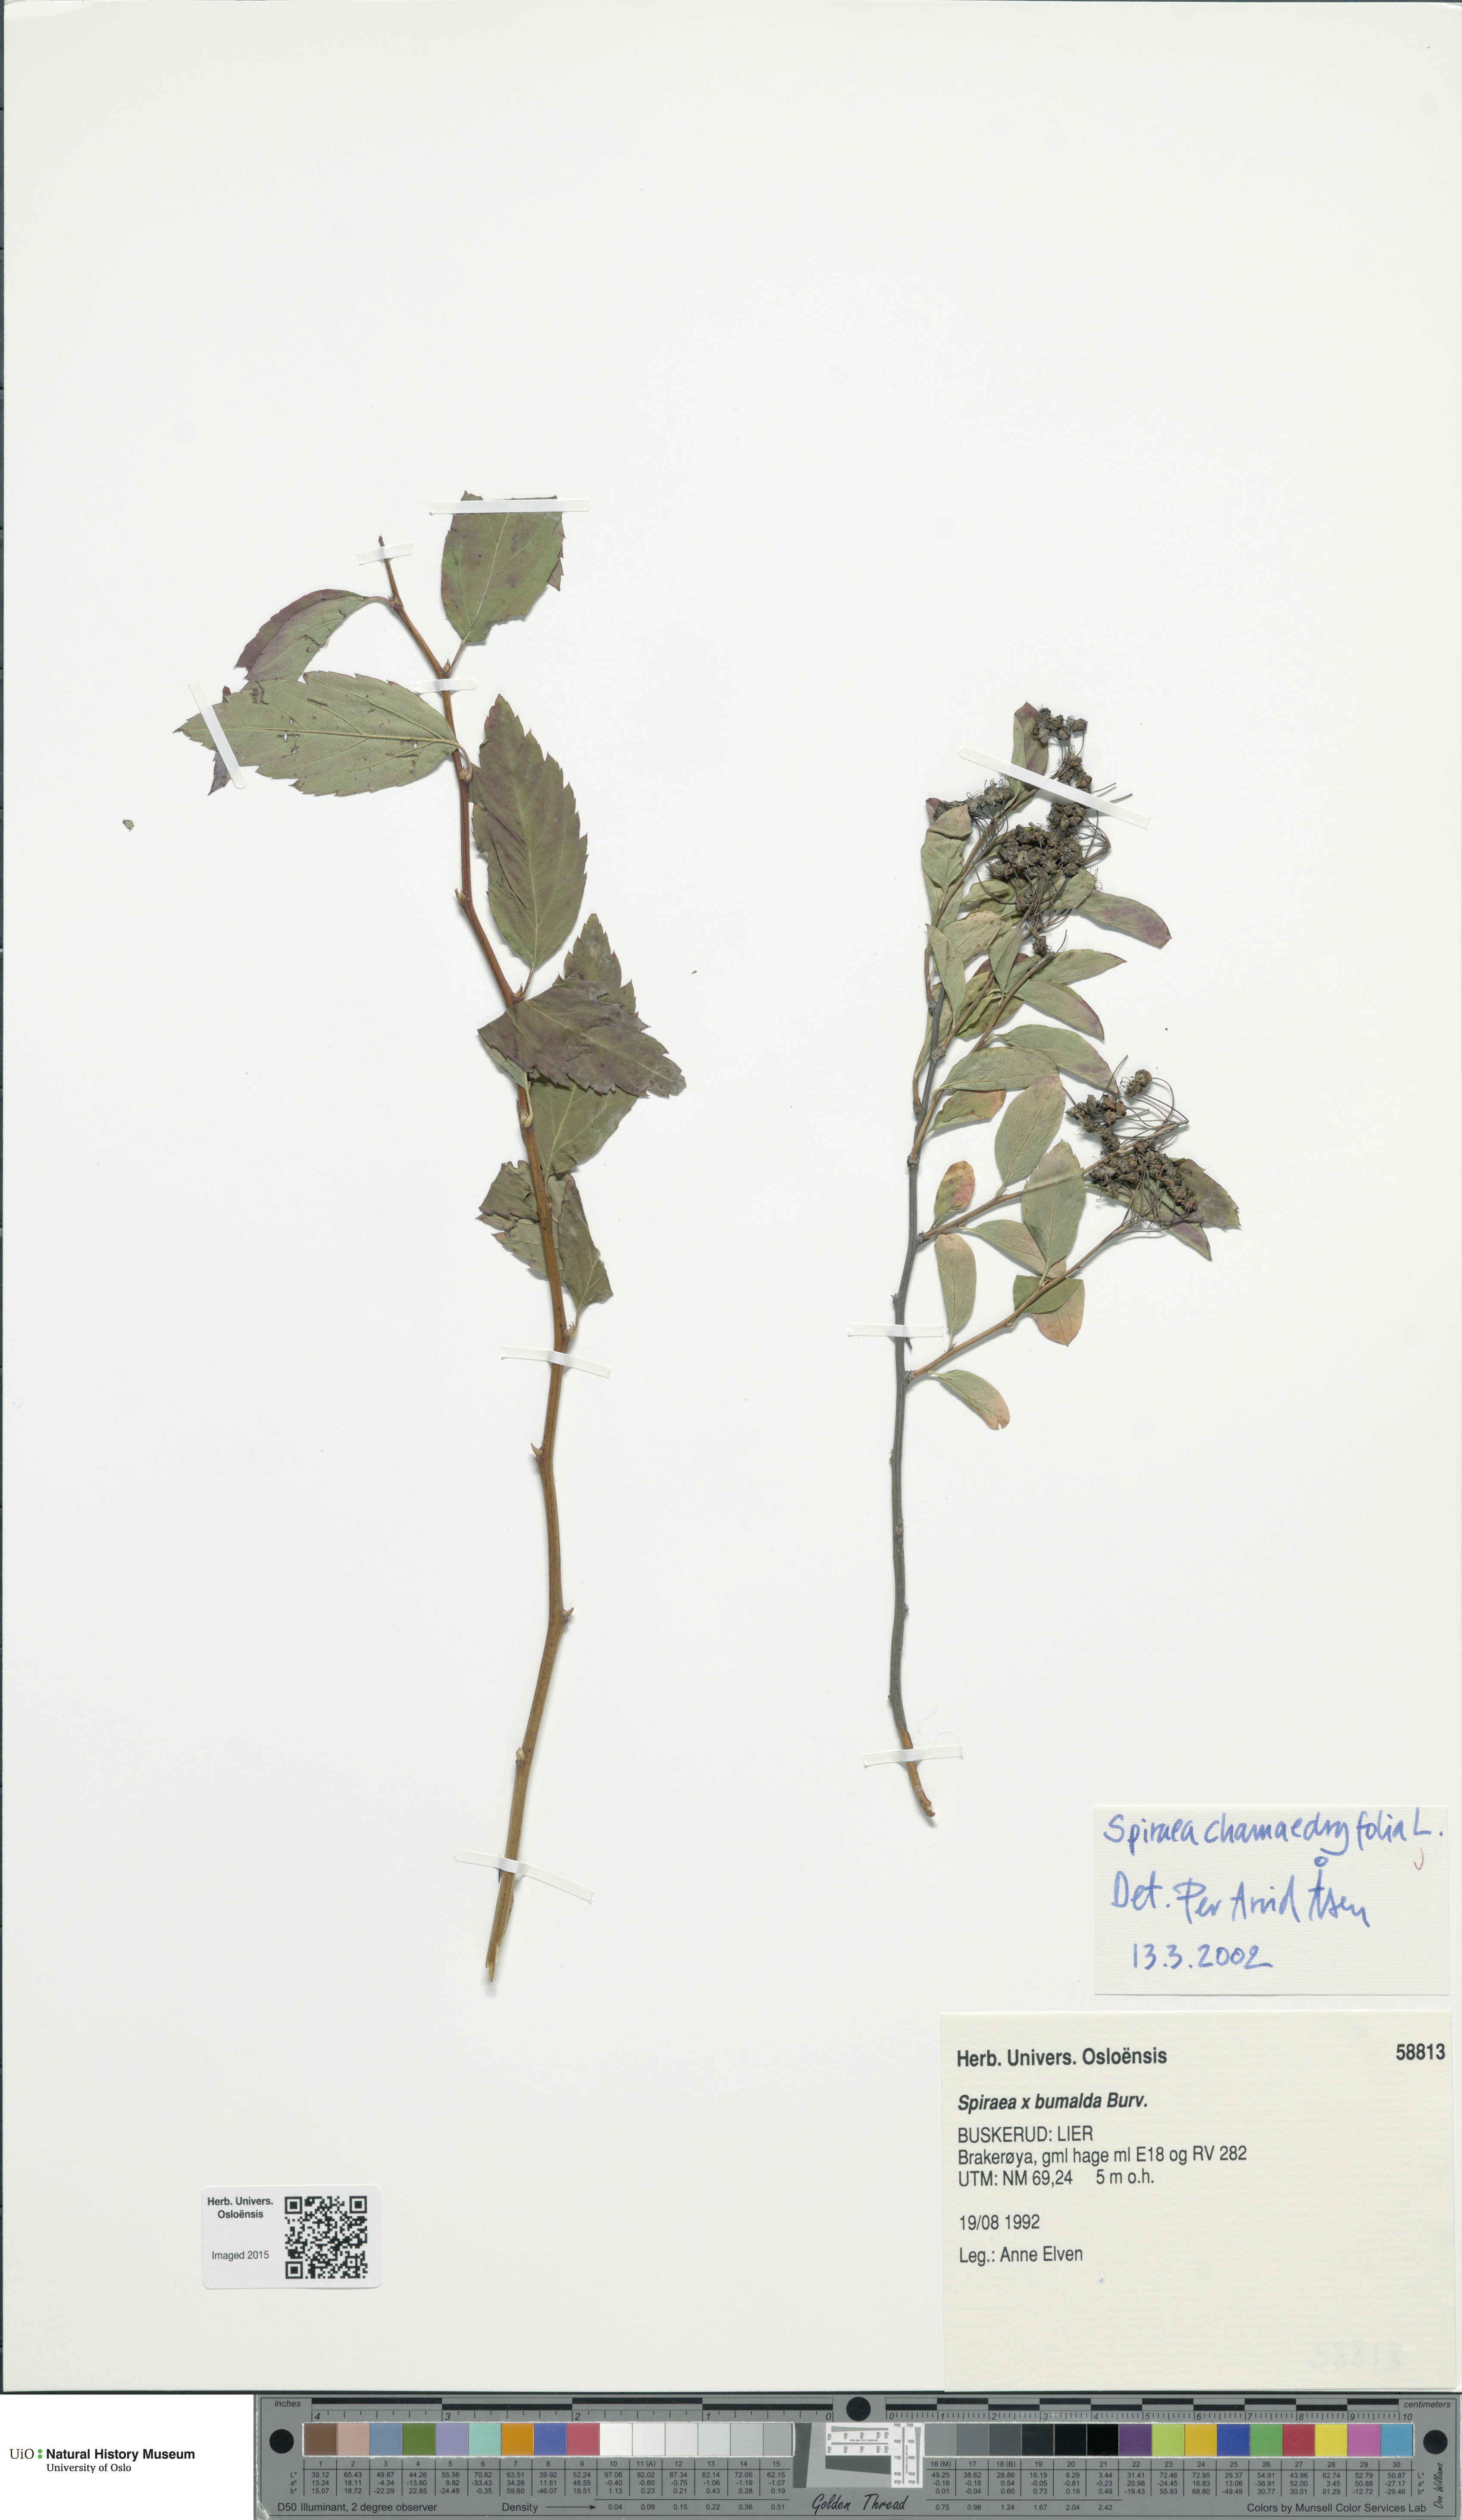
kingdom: Plantae
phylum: Tracheophyta
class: Magnoliopsida
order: Rosales
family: Rosaceae
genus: Spiraea
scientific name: Spiraea chamaedryfolia
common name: Elm-leaved spiraea
